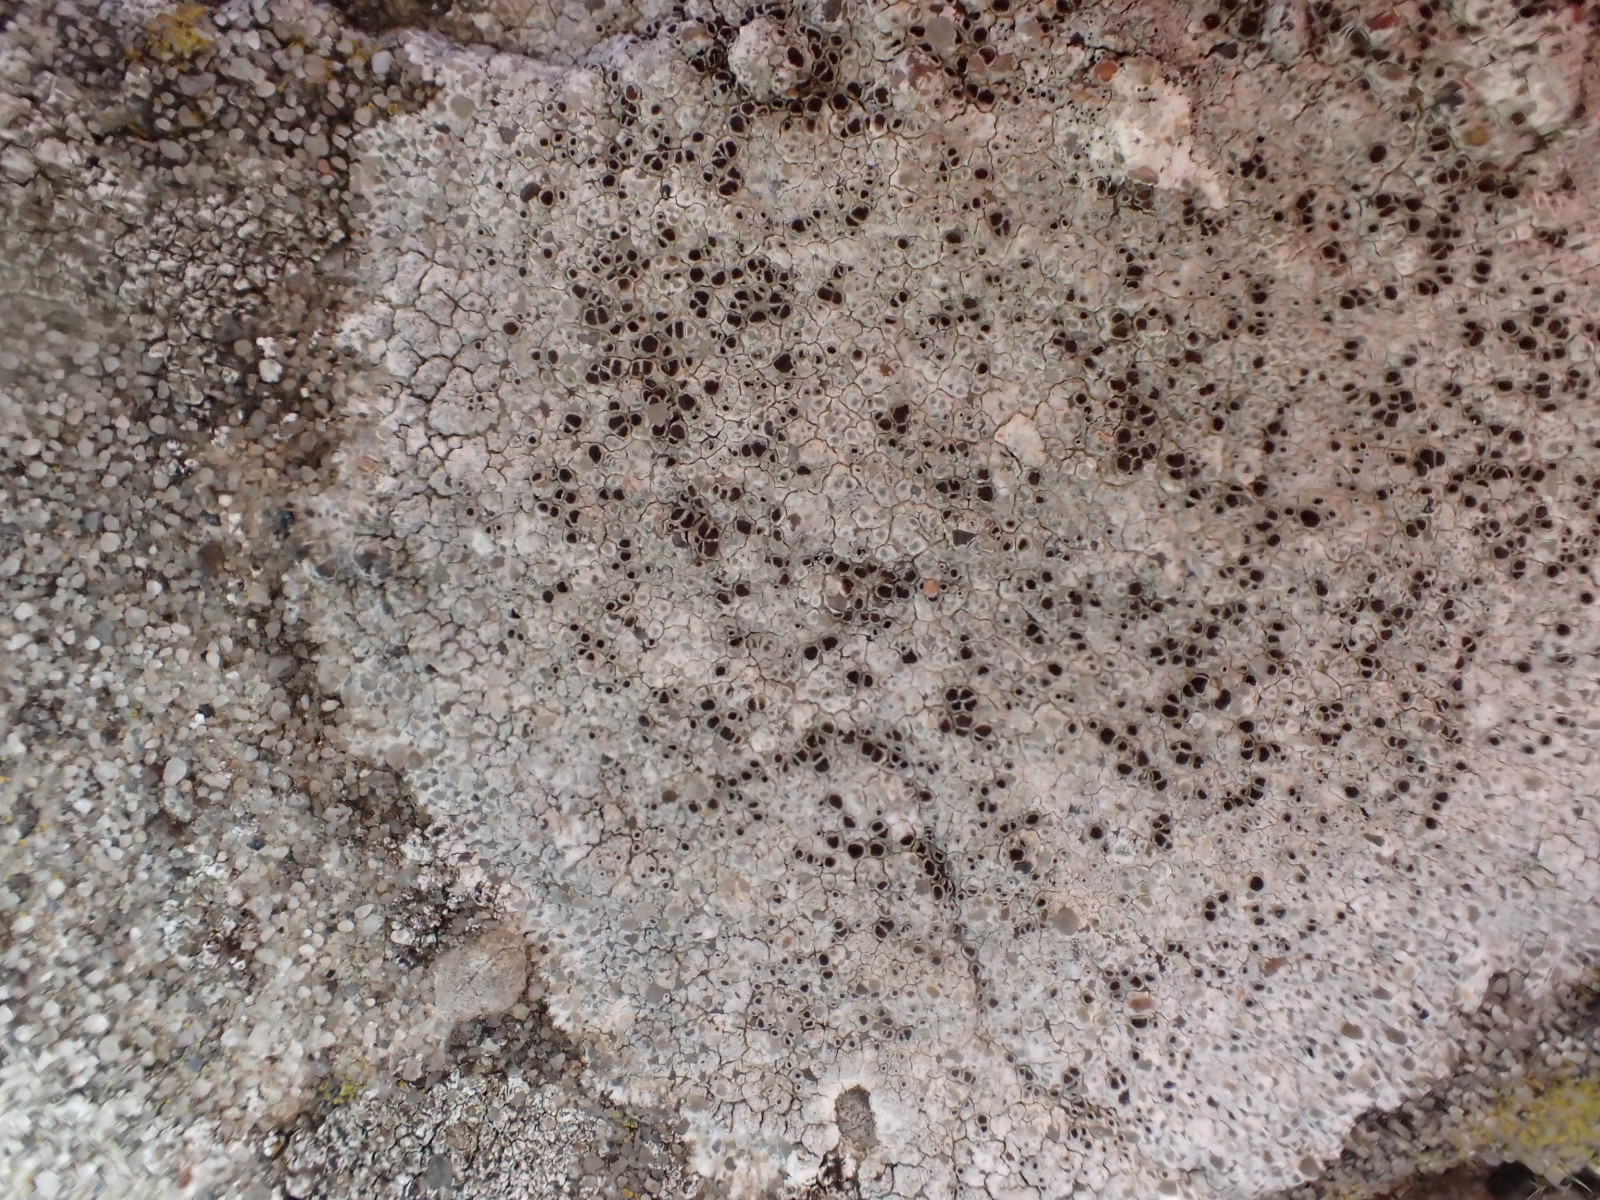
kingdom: Fungi
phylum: Ascomycota
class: Lecanoromycetes
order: Lecanorales
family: Lecanoraceae
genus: Lecanora
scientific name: Lecanora campestris
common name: mur-kantskivelav
